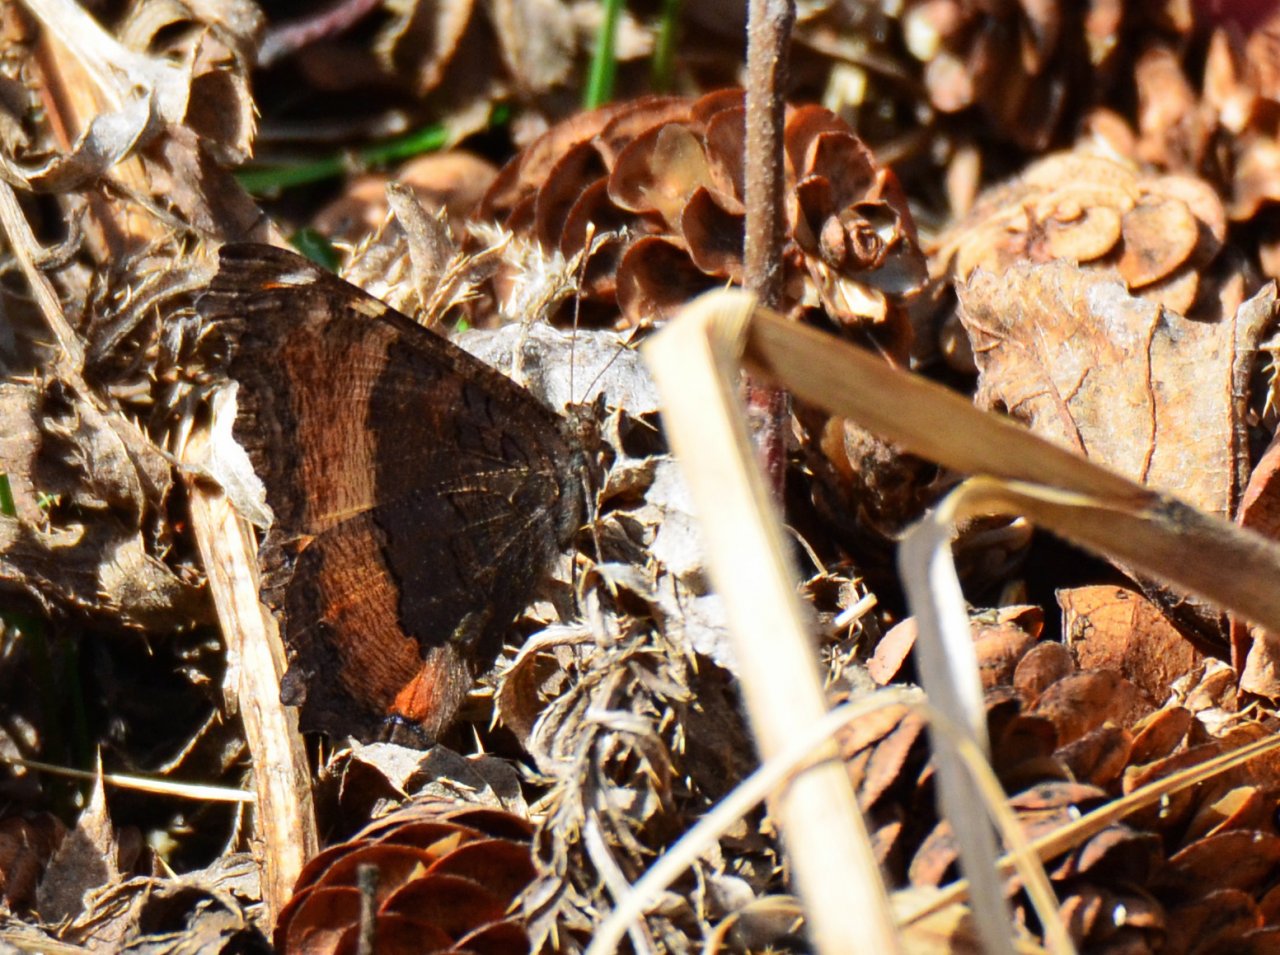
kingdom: Animalia
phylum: Arthropoda
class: Insecta
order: Lepidoptera
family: Nymphalidae
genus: Aglais
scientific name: Aglais milberti
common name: Milbert's Tortoiseshell
